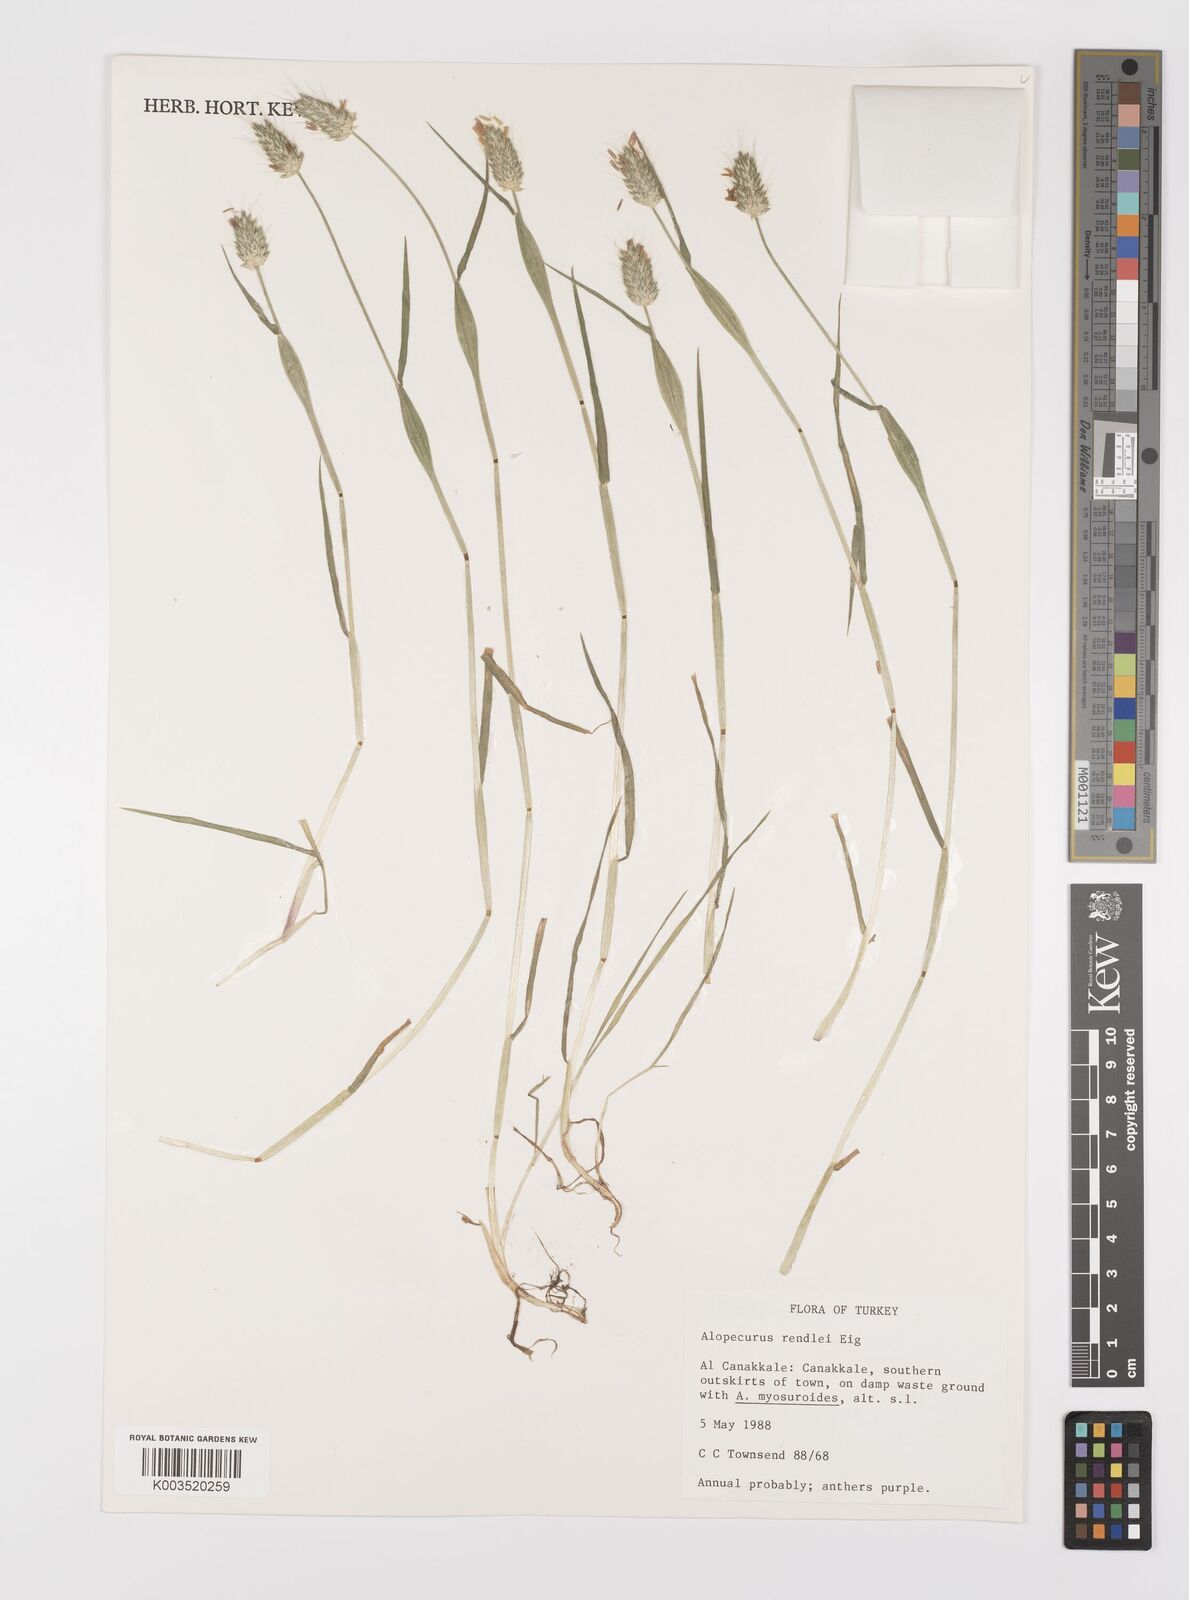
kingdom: Plantae
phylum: Tracheophyta
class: Liliopsida
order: Poales
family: Poaceae
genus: Alopecurus
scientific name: Alopecurus rendlei
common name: Rendle's meadow foxtail
